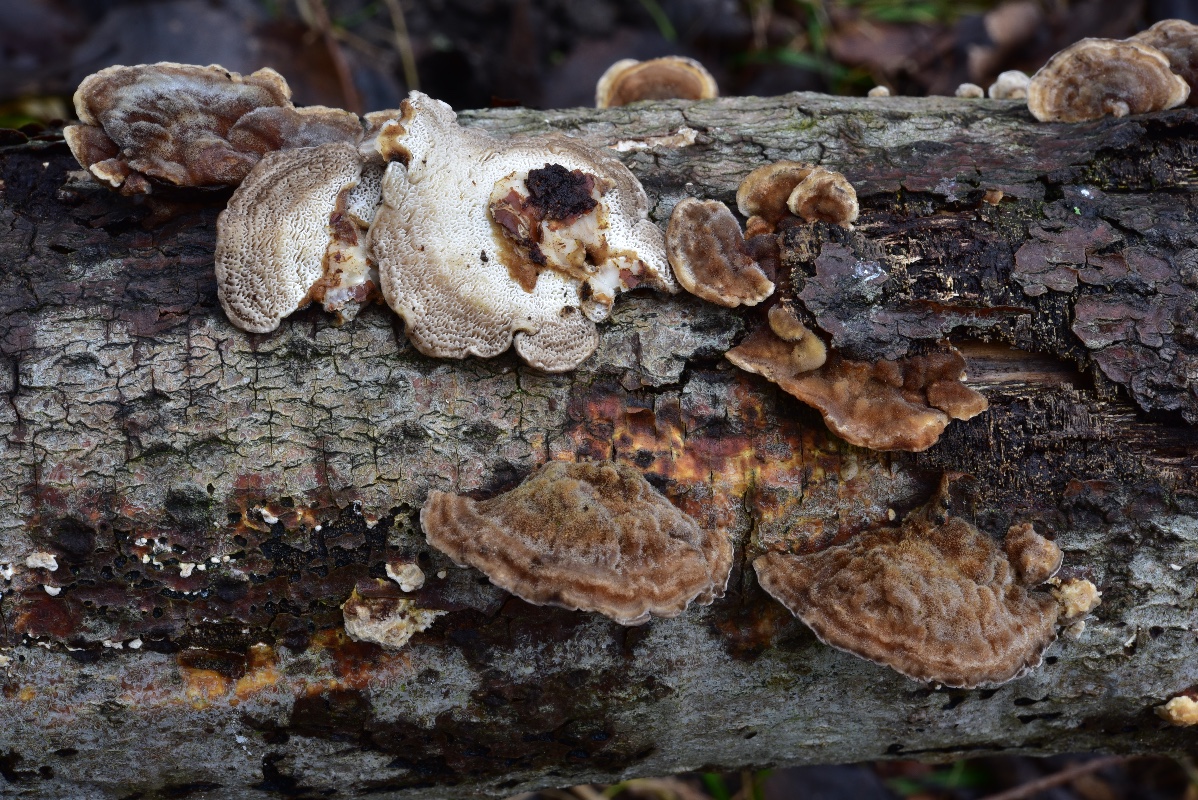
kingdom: Fungi
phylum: Basidiomycota
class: Agaricomycetes
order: Polyporales
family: Polyporaceae
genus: Trametes
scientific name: Trametes versicolor
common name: broget læderporesvamp
